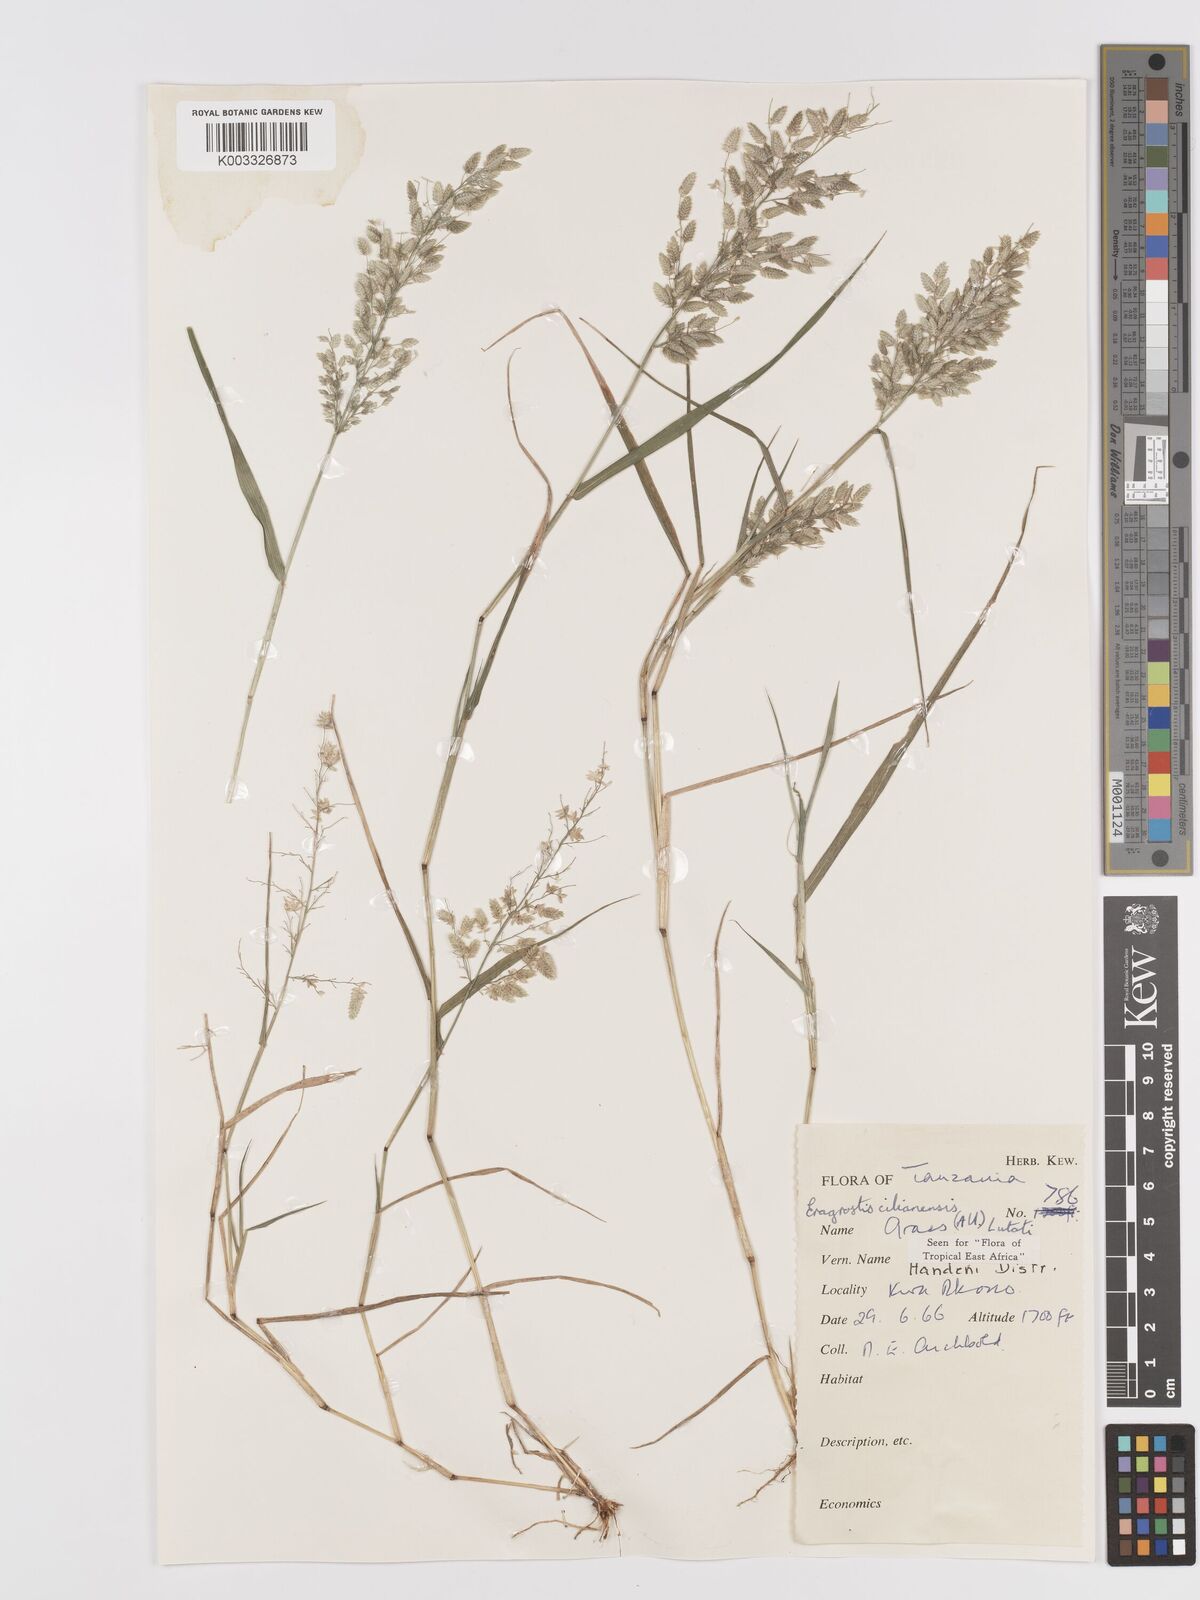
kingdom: Plantae
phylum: Tracheophyta
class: Liliopsida
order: Poales
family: Poaceae
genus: Eragrostis
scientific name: Eragrostis cilianensis
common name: Stinkgrass
